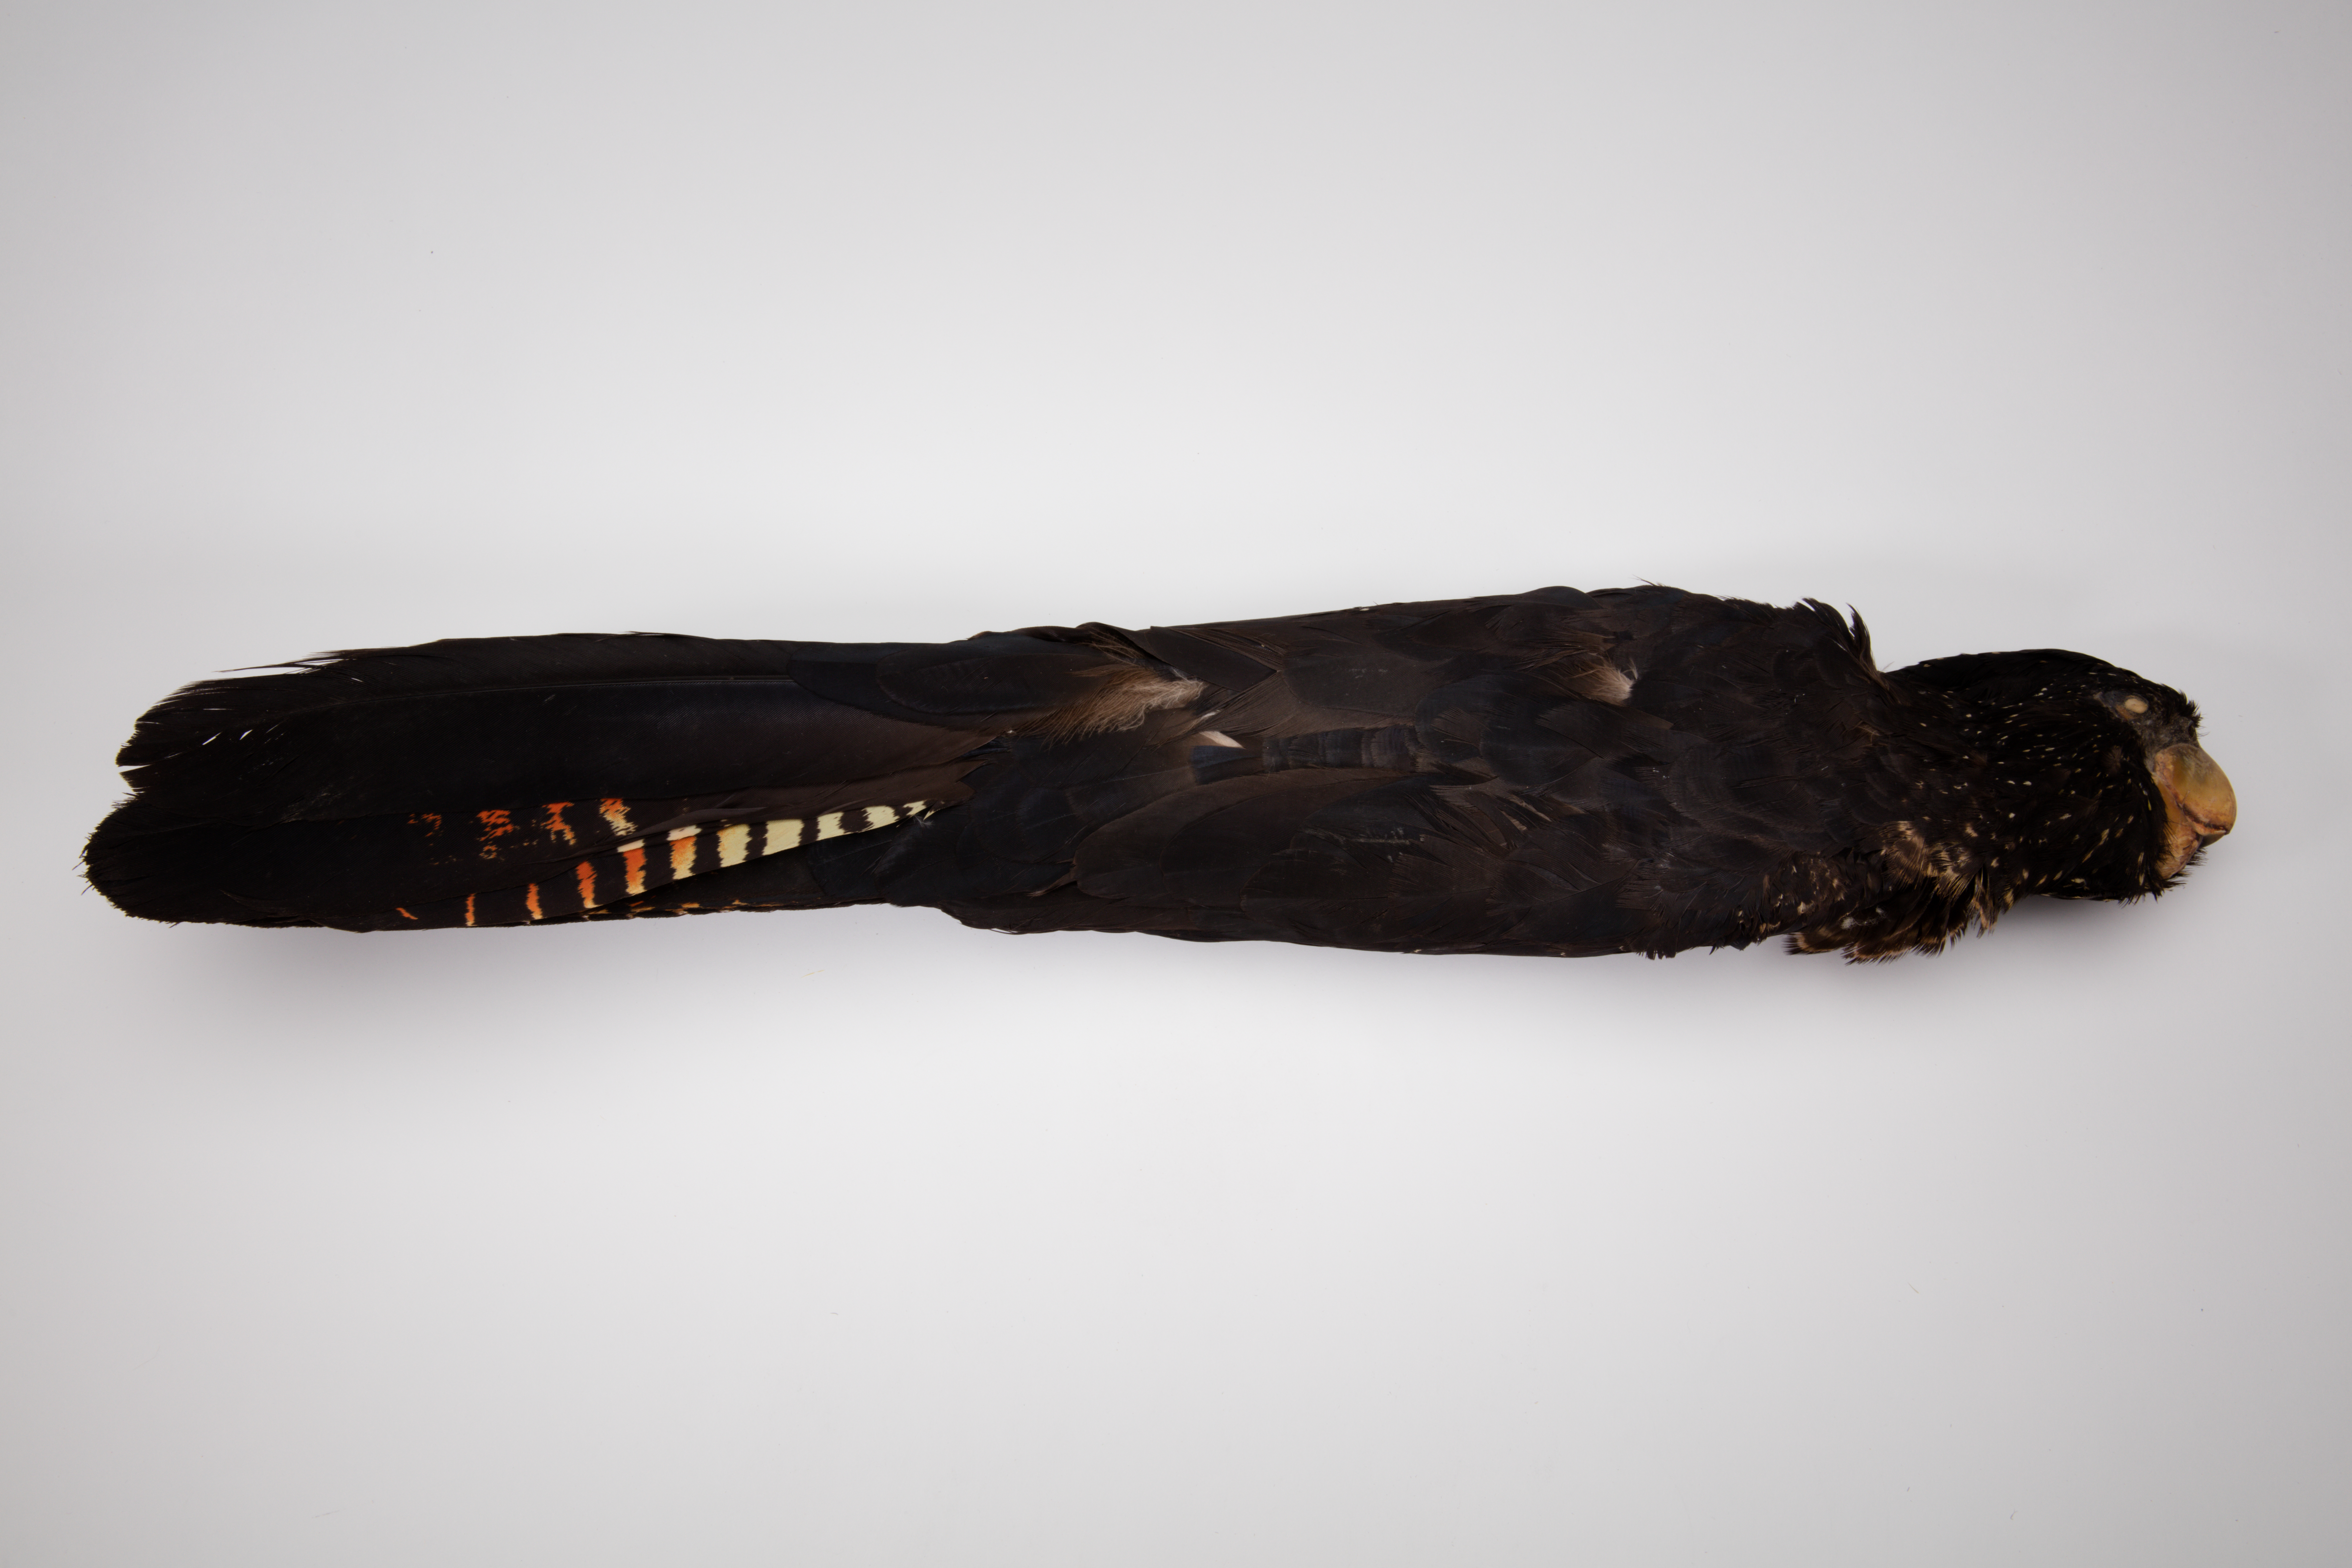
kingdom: Animalia
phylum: Chordata
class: Aves
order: Psittaciformes
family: Psittacidae
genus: Calyptorhynchus
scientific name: Calyptorhynchus banksii
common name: Red-tailed black cockatoo
